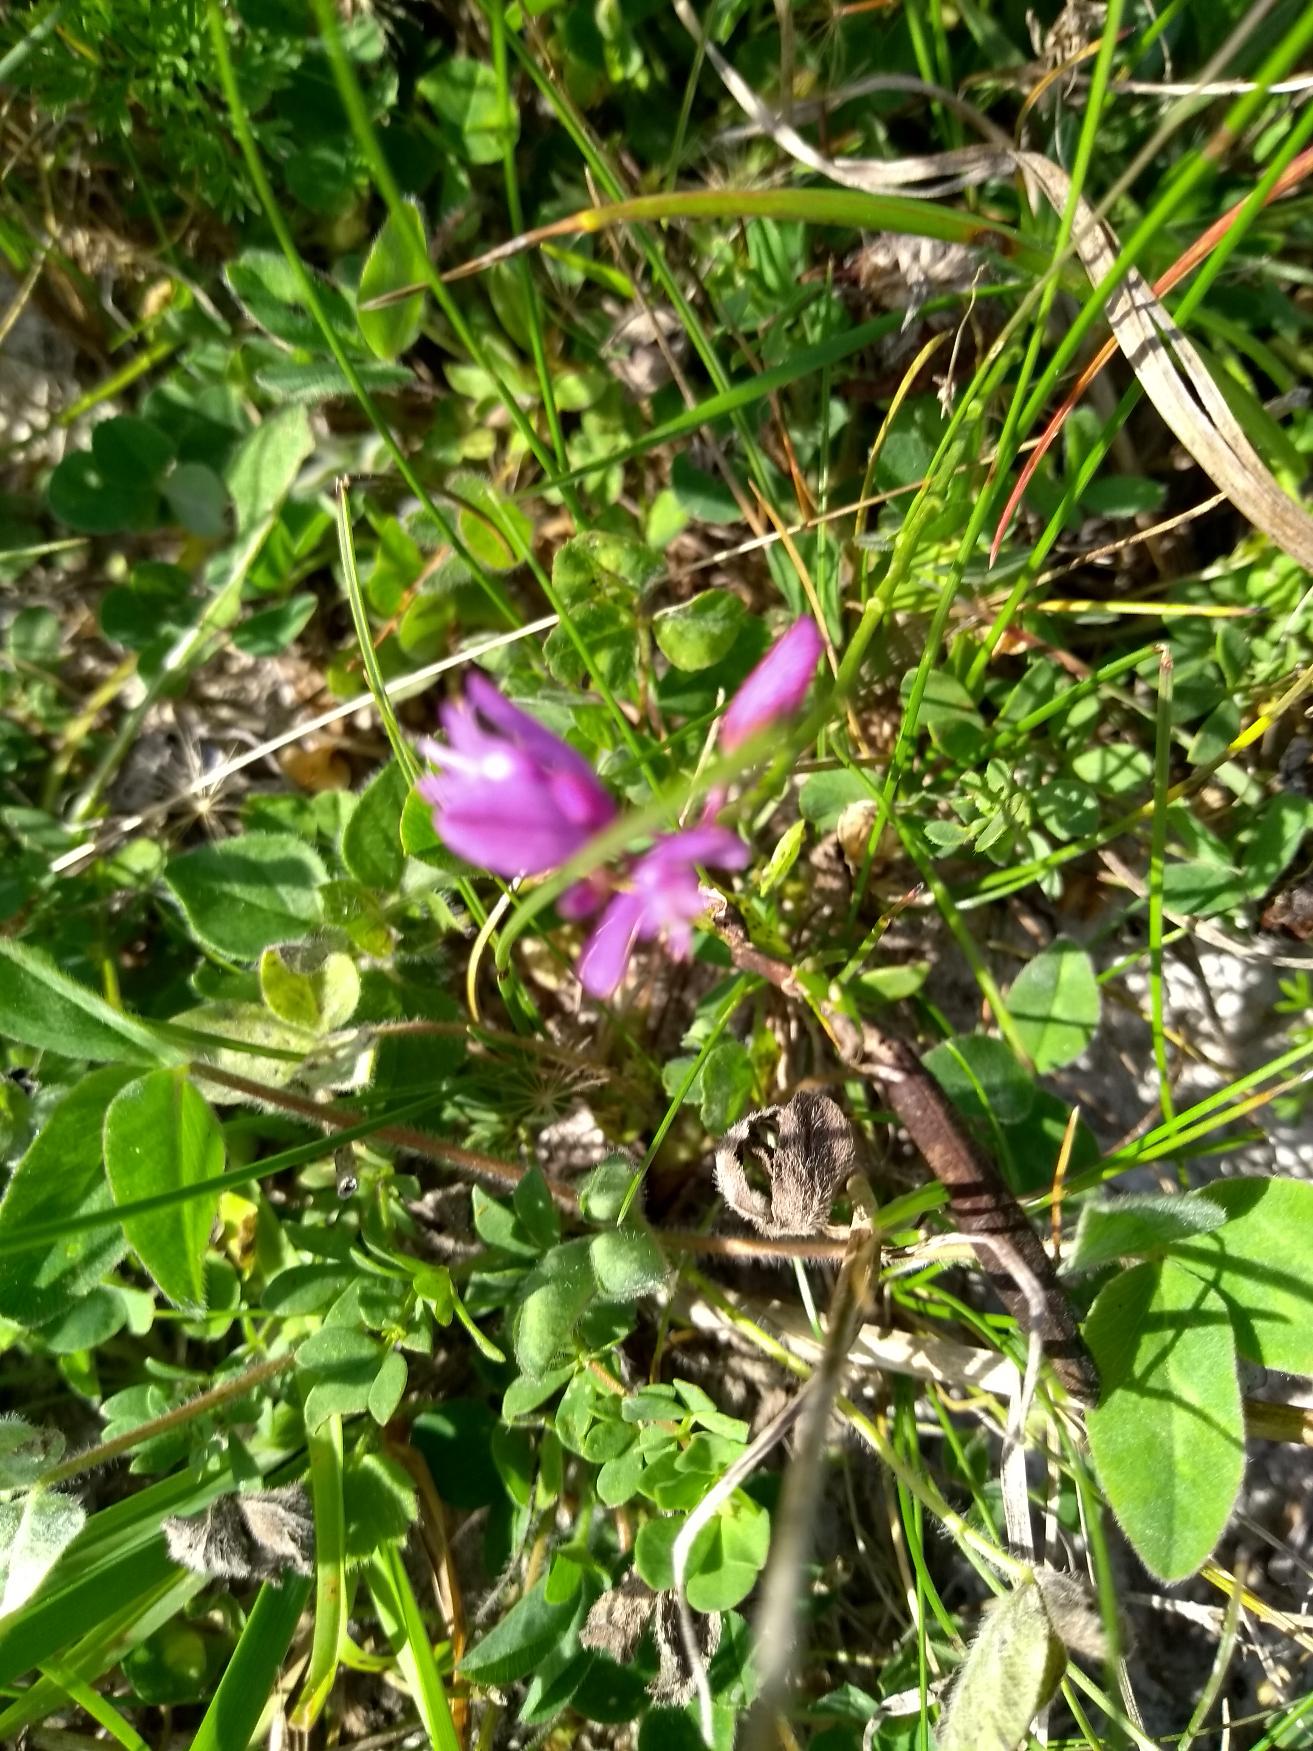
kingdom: Plantae
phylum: Tracheophyta
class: Magnoliopsida
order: Fabales
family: Polygalaceae
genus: Polygala
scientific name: Polygala vulgaris
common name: Almindelig mælkeurt
